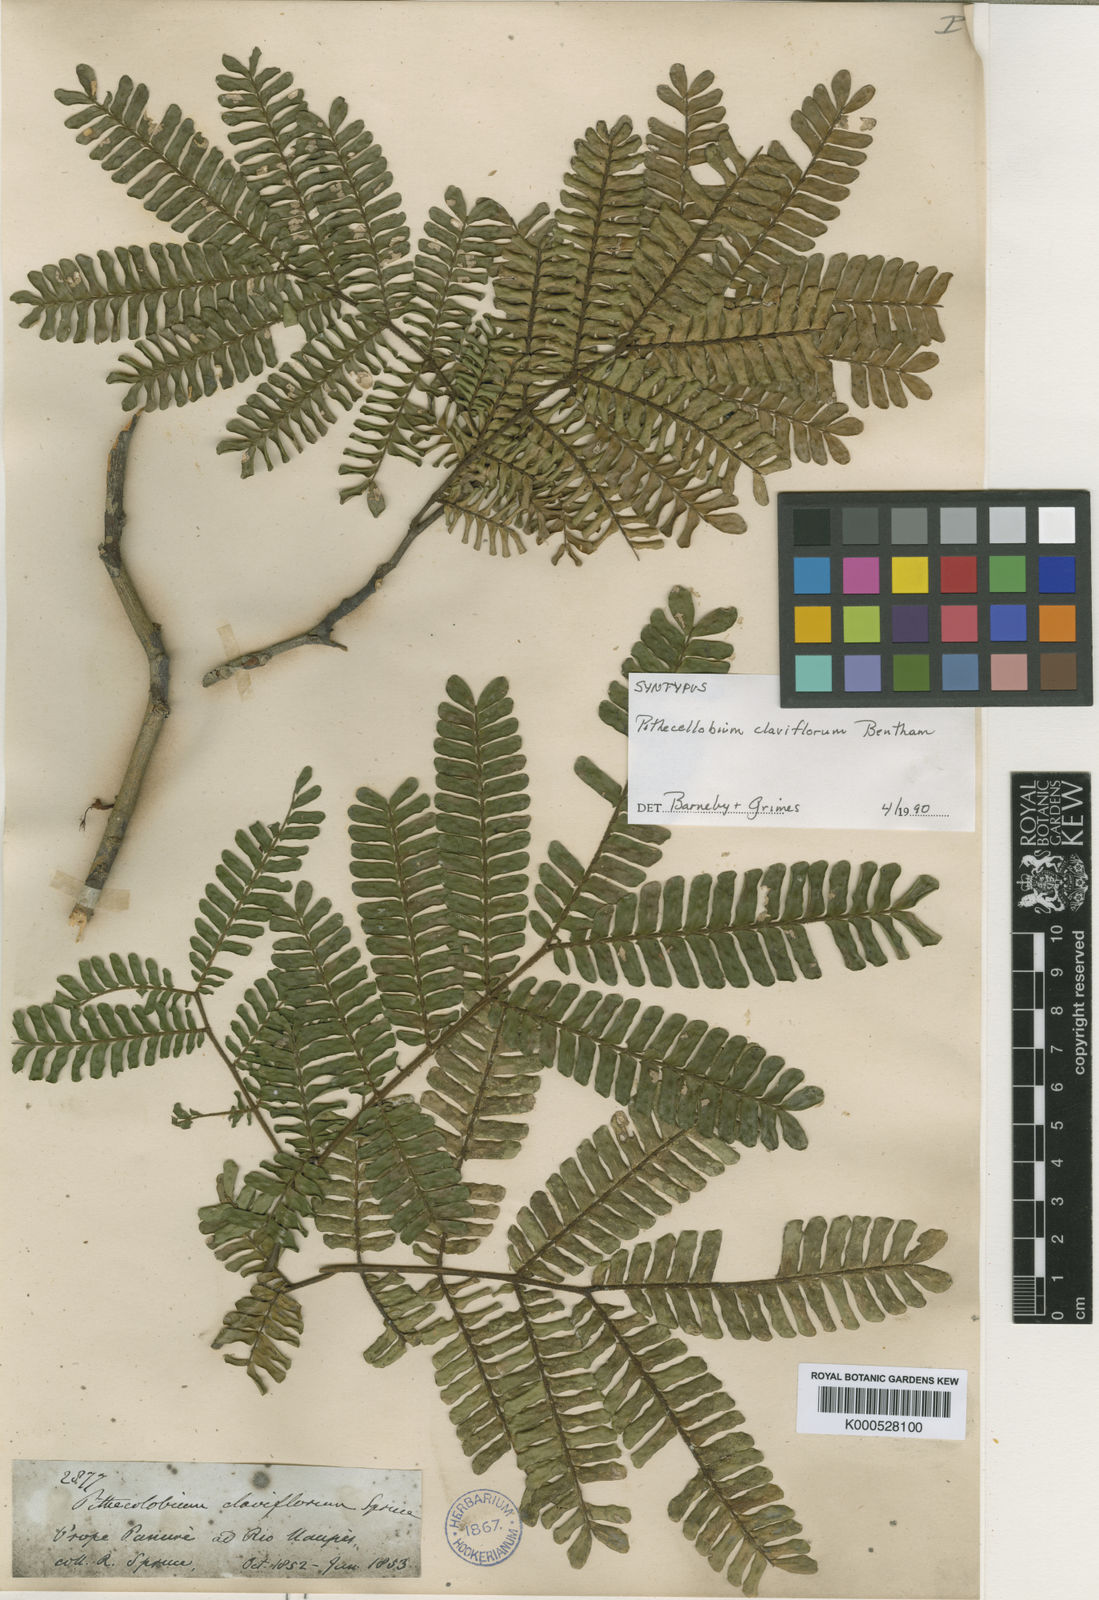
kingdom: Plantae
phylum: Tracheophyta
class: Magnoliopsida
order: Fabales
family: Fabaceae
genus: Zygia
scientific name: Zygia claviflora
